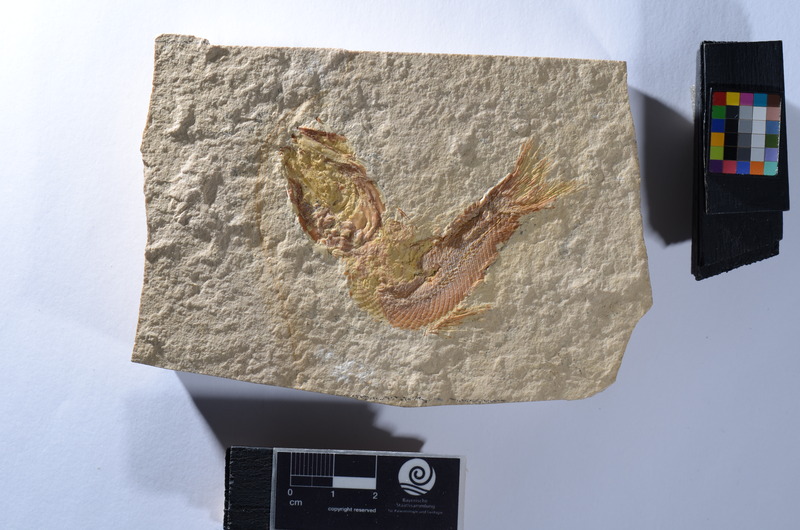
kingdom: Animalia
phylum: Chordata
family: Ophiopsiellidae
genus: Furo
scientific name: Furo
